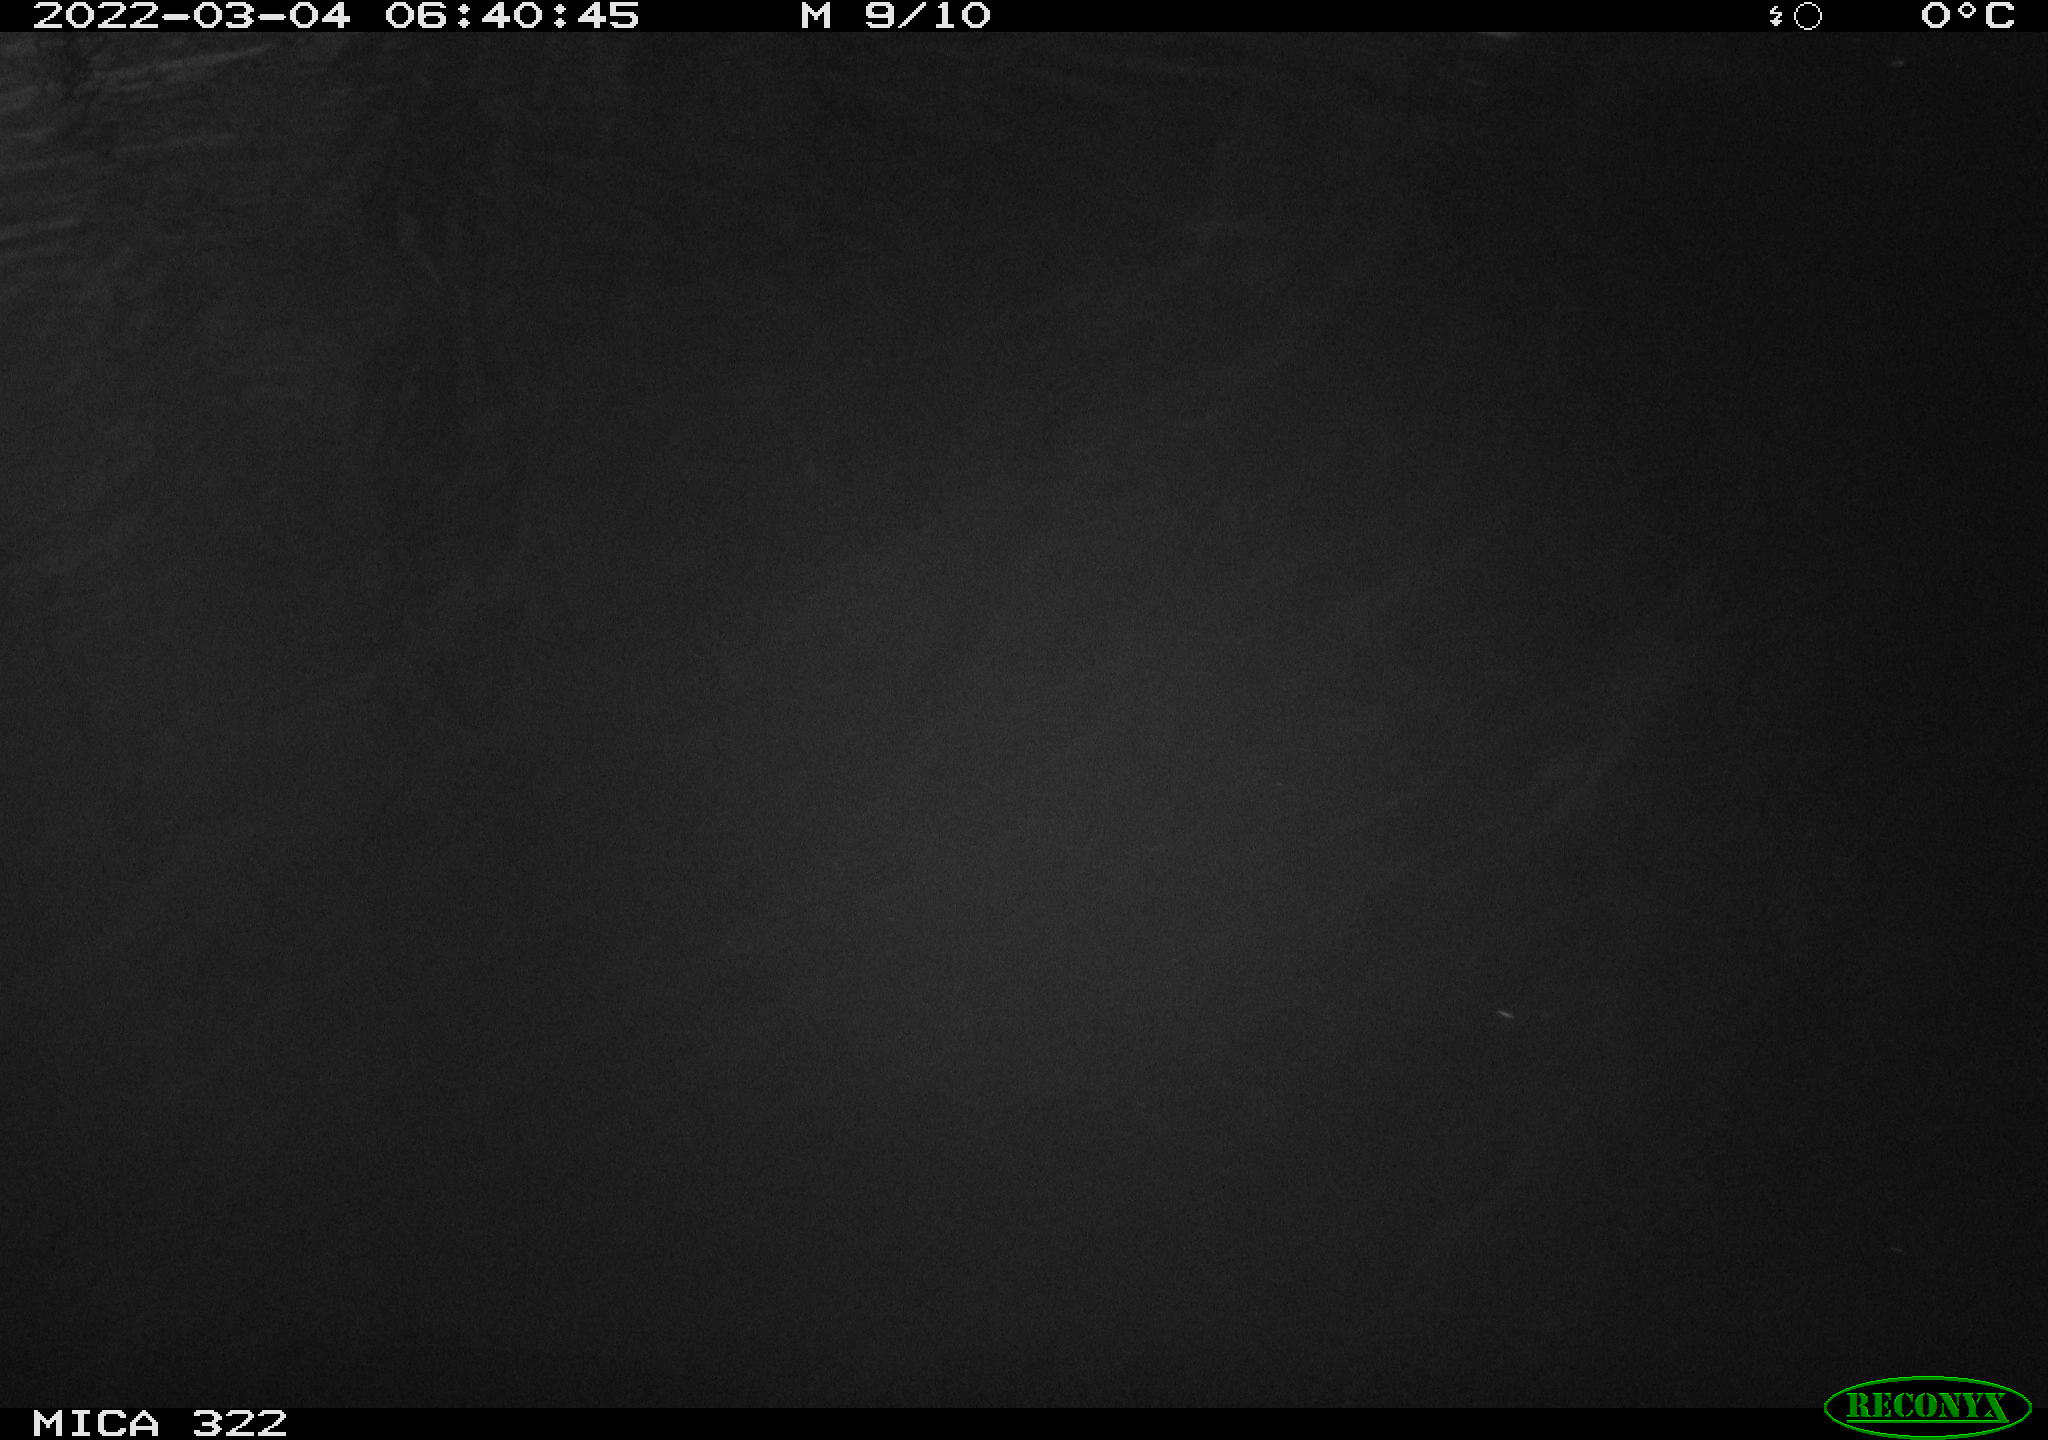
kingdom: Animalia
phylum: Chordata
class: Aves
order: Anseriformes
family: Anatidae
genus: Anas
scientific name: Anas platyrhynchos
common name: Mallard
